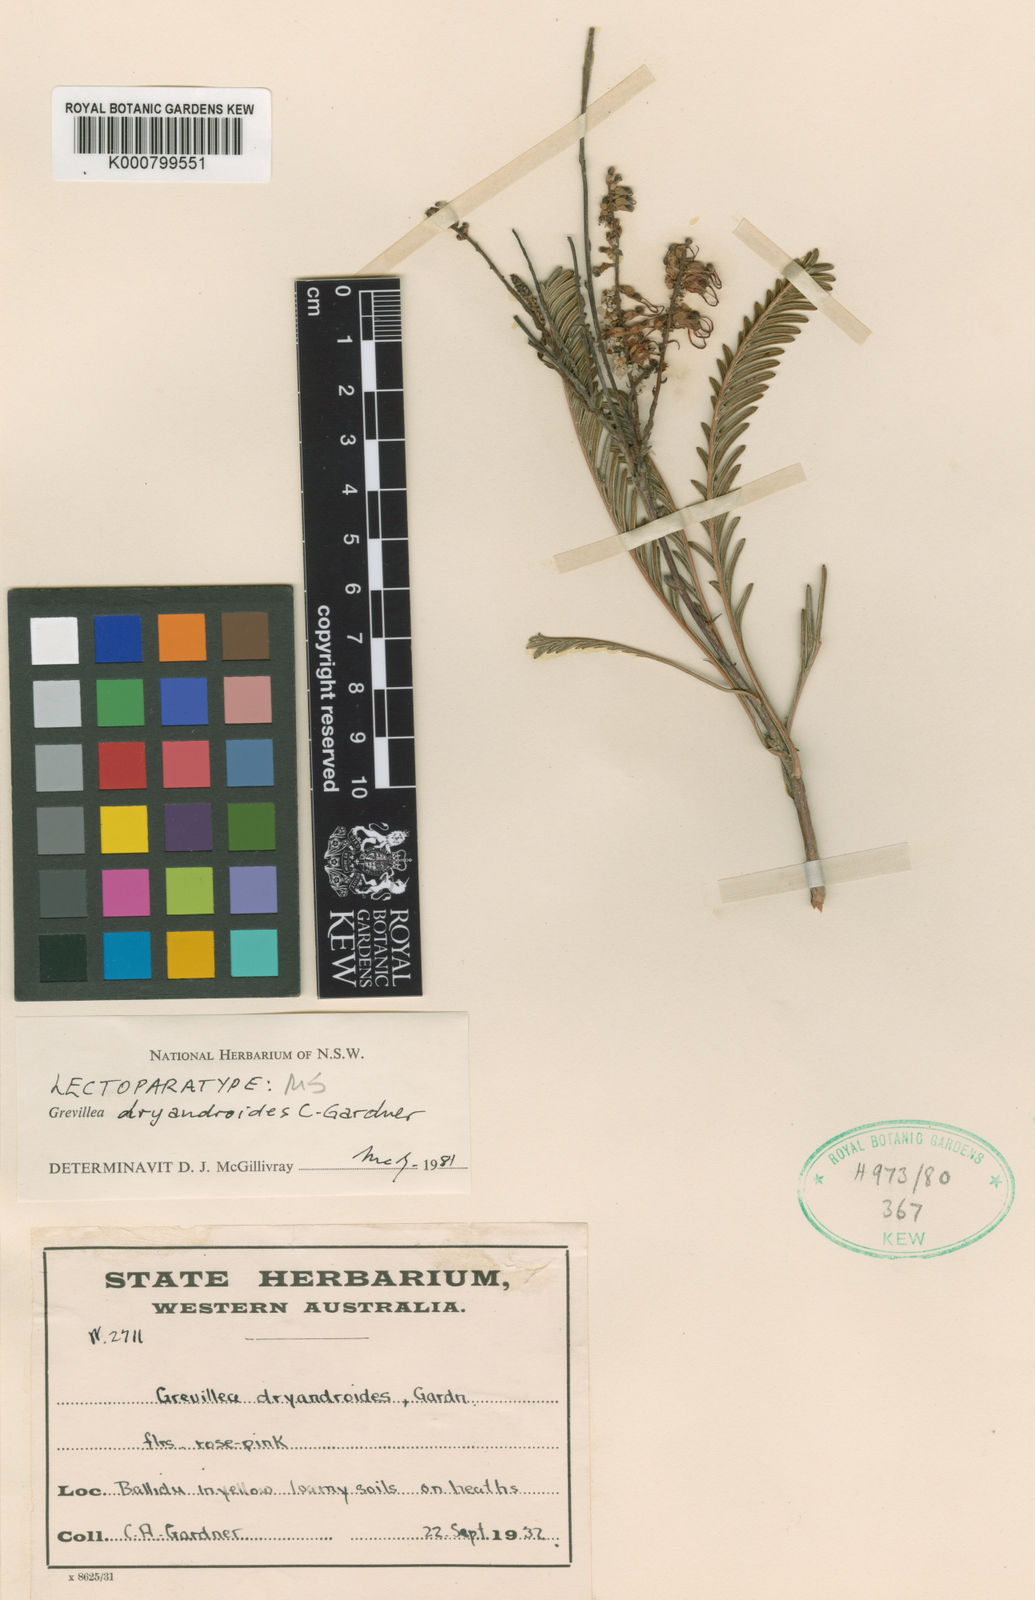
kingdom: Plantae
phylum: Tracheophyta
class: Magnoliopsida
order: Proteales
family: Proteaceae
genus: Grevillea
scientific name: Grevillea dryandroides
